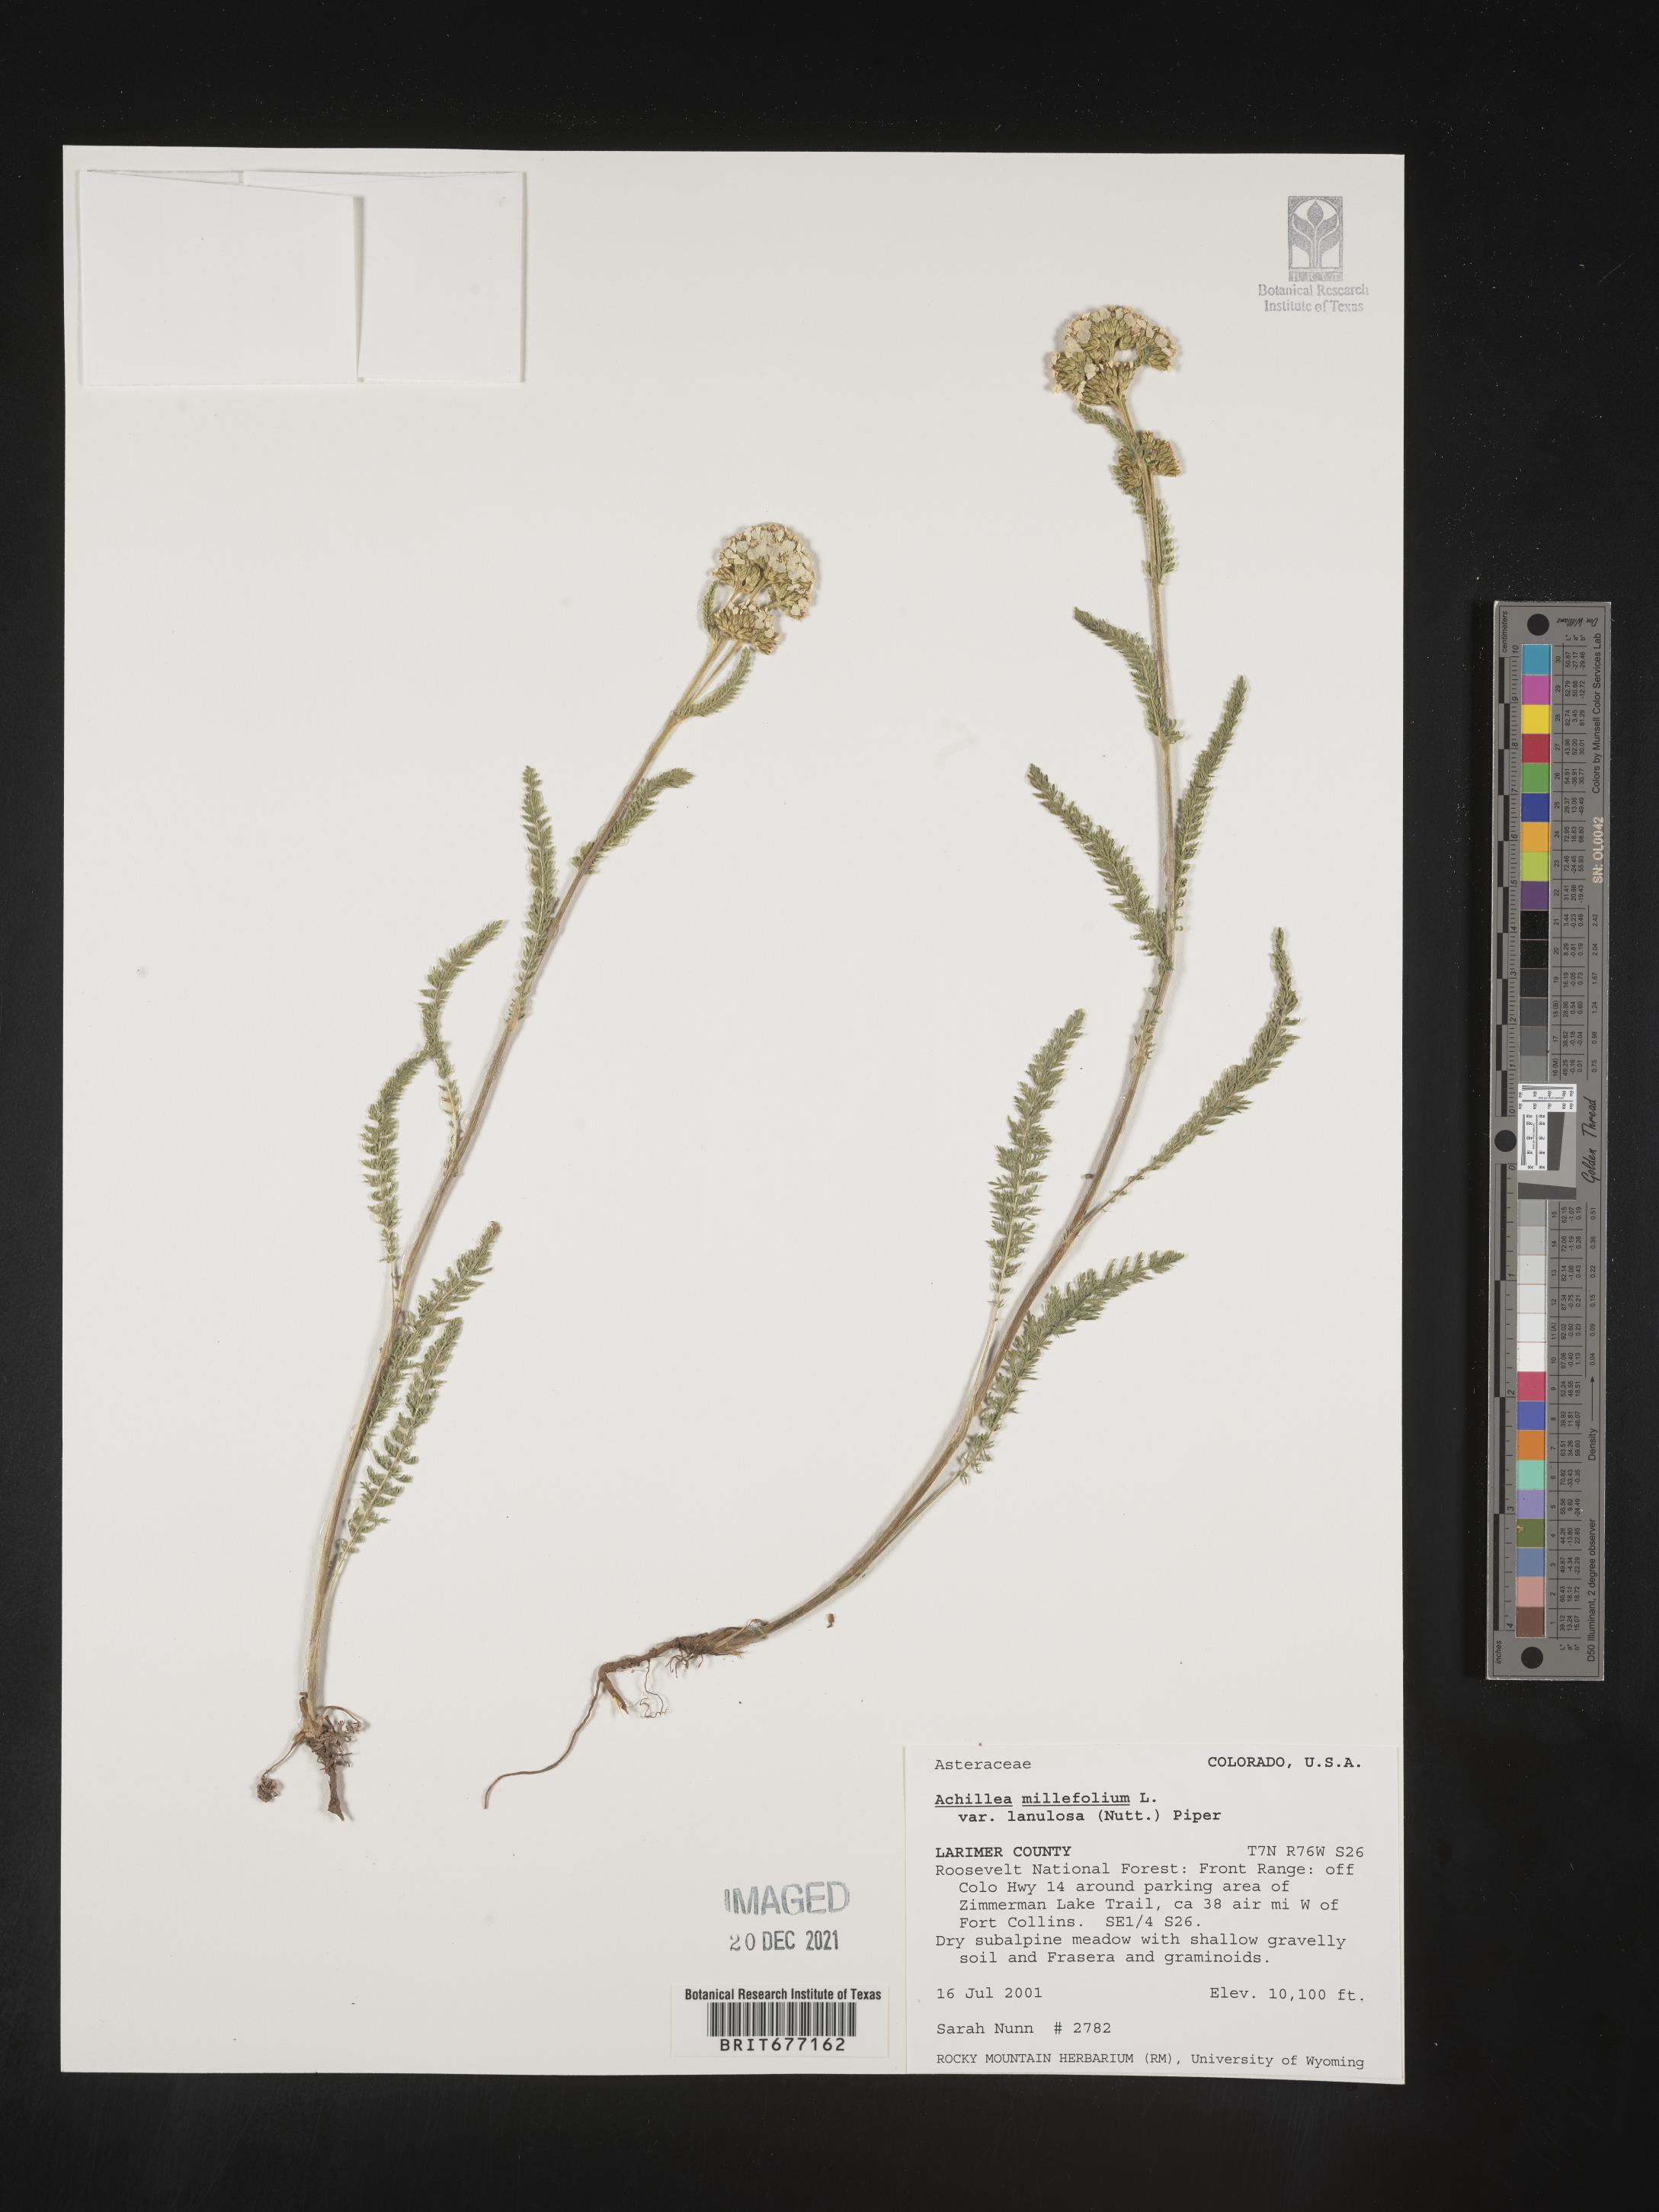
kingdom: Plantae
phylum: Tracheophyta
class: Magnoliopsida
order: Asterales
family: Asteraceae
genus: Achillea
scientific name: Achillea millefolium
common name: Yarrow
